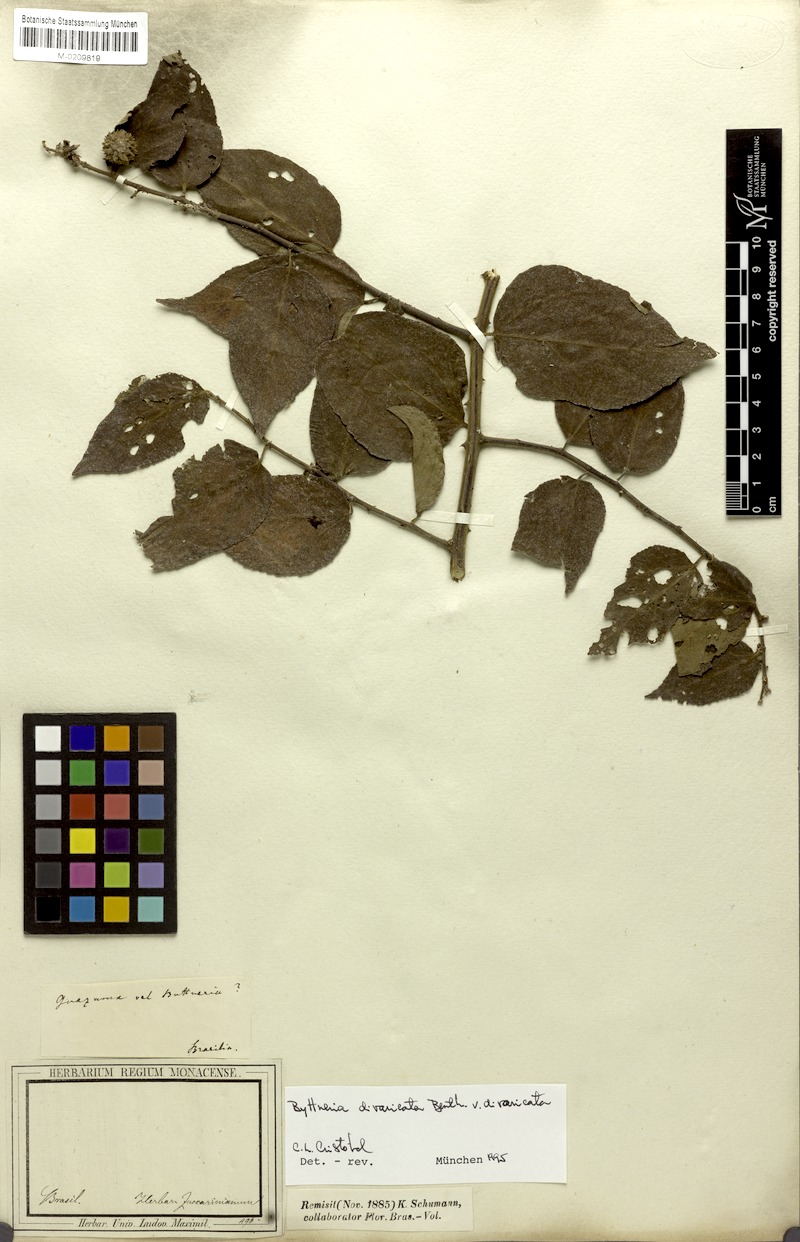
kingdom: Plantae
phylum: Tracheophyta
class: Magnoliopsida
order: Malvales
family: Malvaceae
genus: Byttneria
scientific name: Byttneria divaricata
